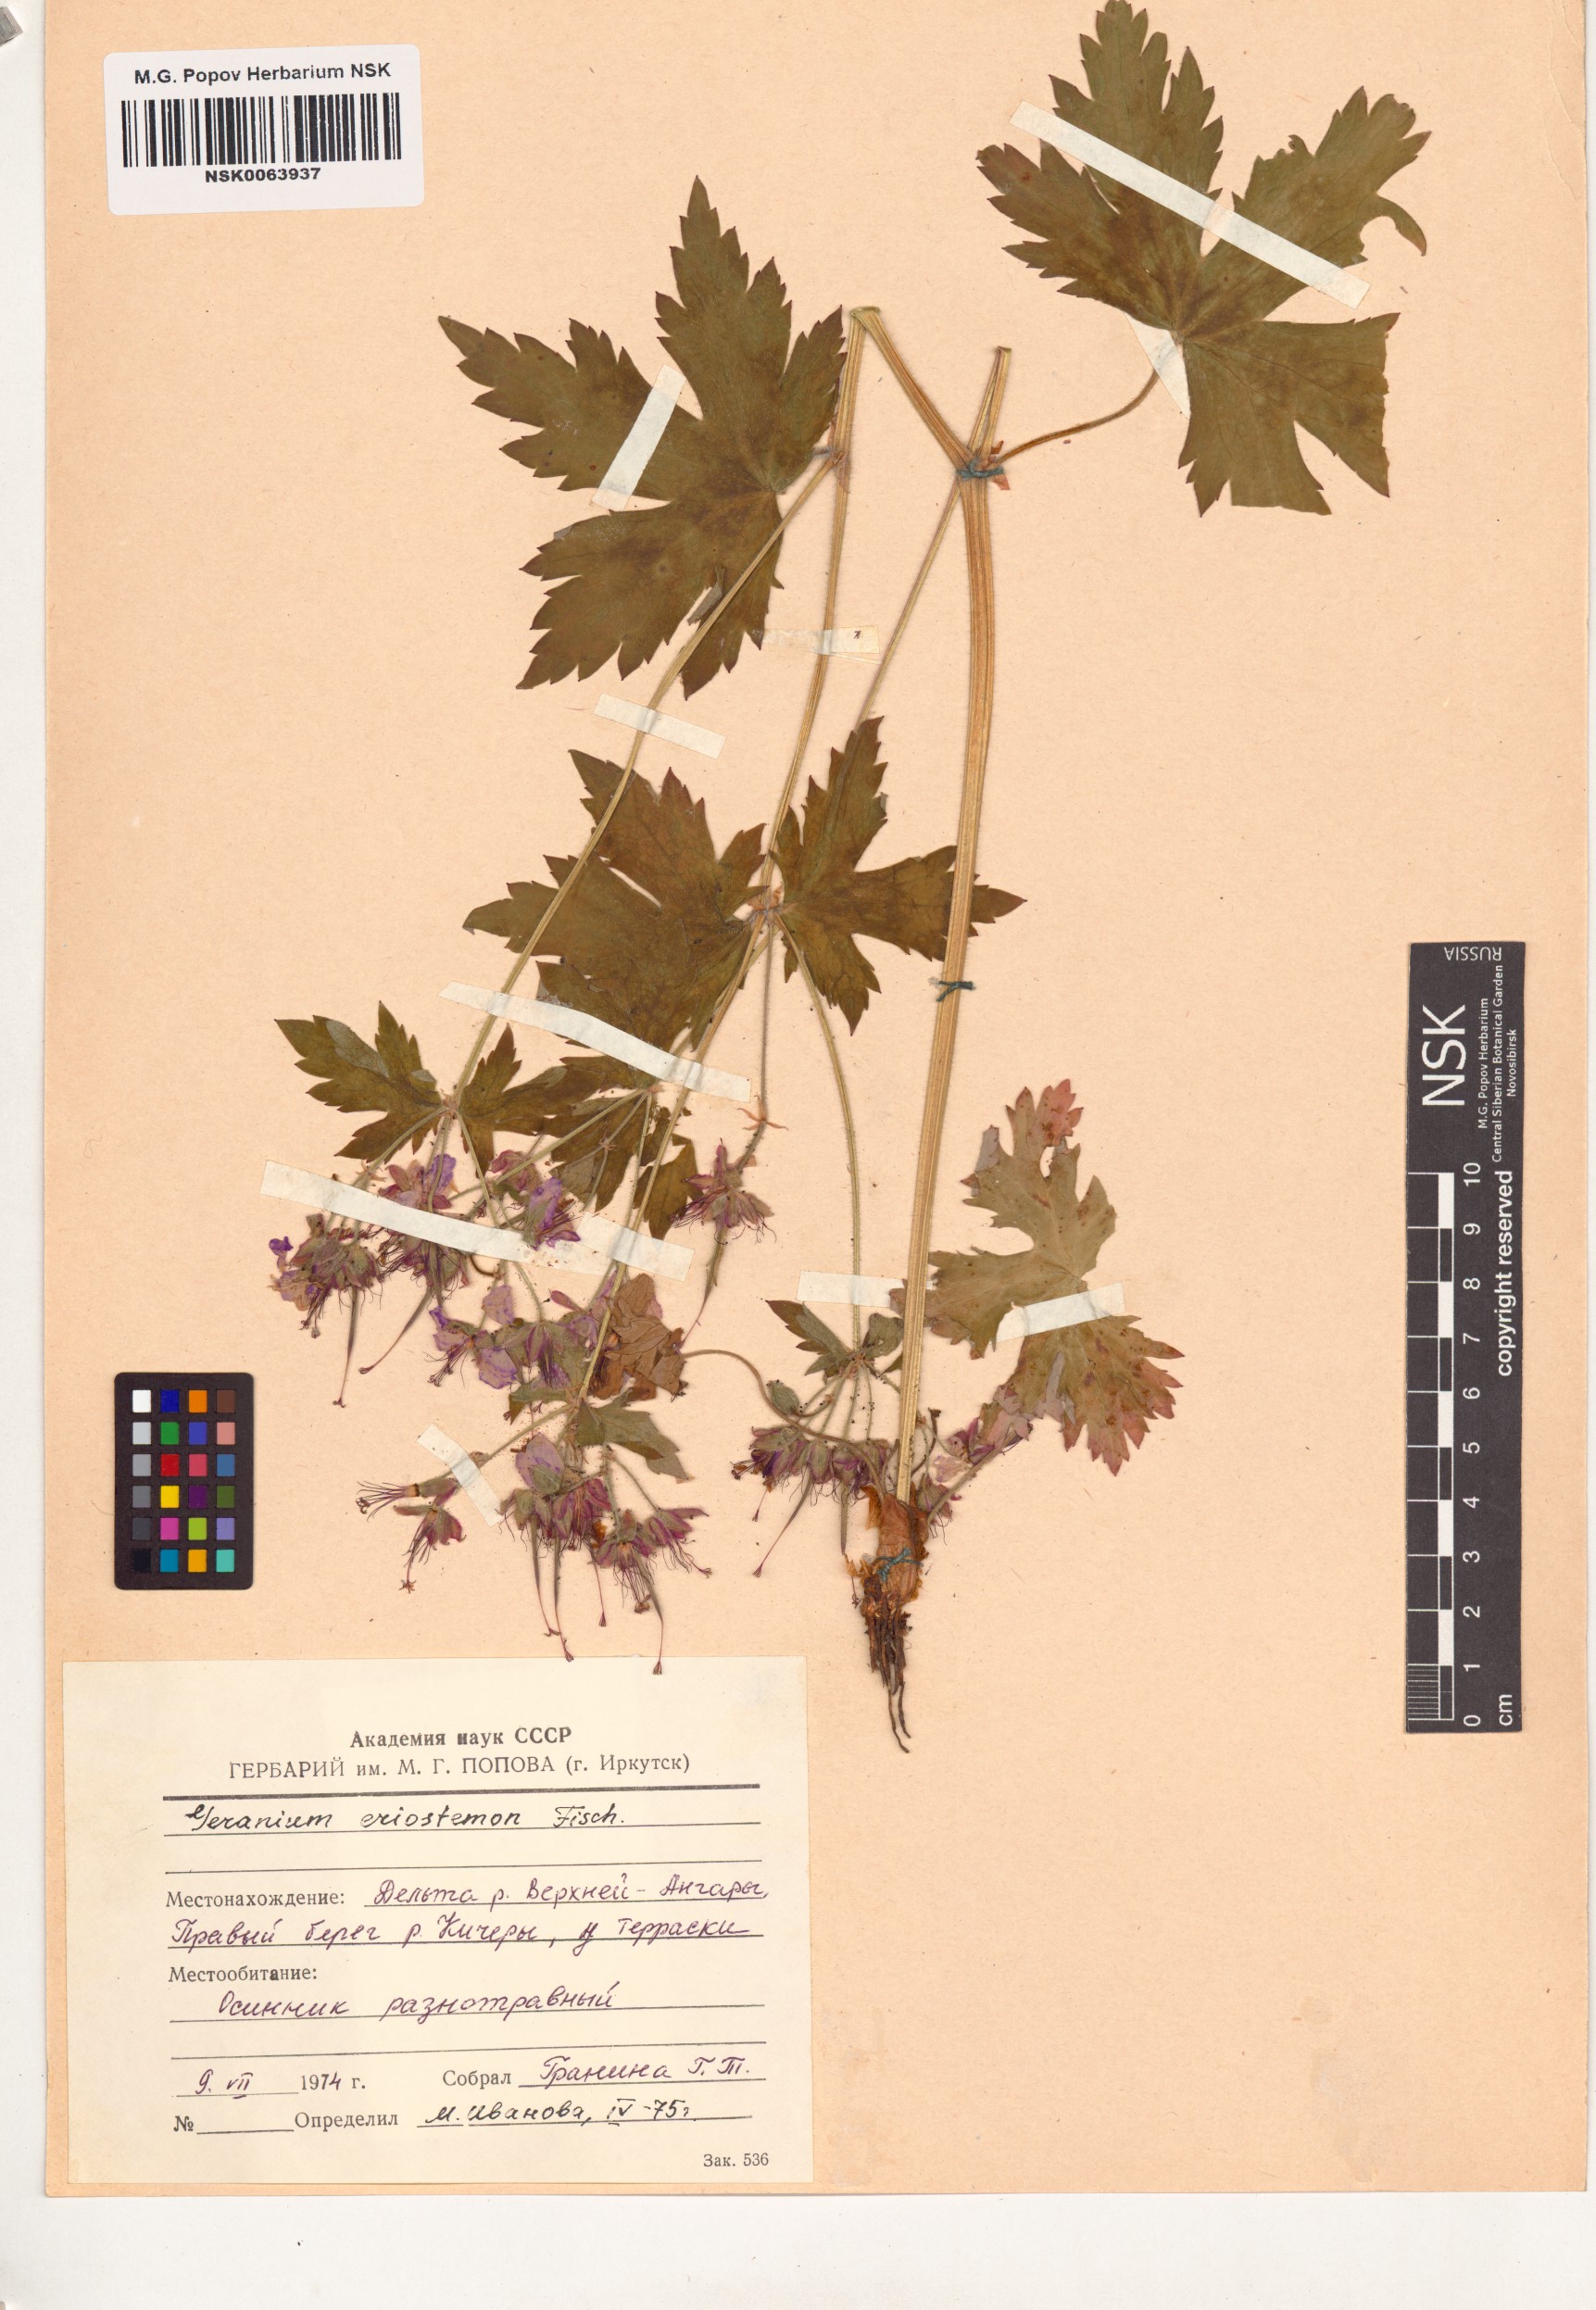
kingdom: Plantae
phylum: Tracheophyta
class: Magnoliopsida
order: Geraniales
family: Geraniaceae
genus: Geranium
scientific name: Geranium platyanthum
